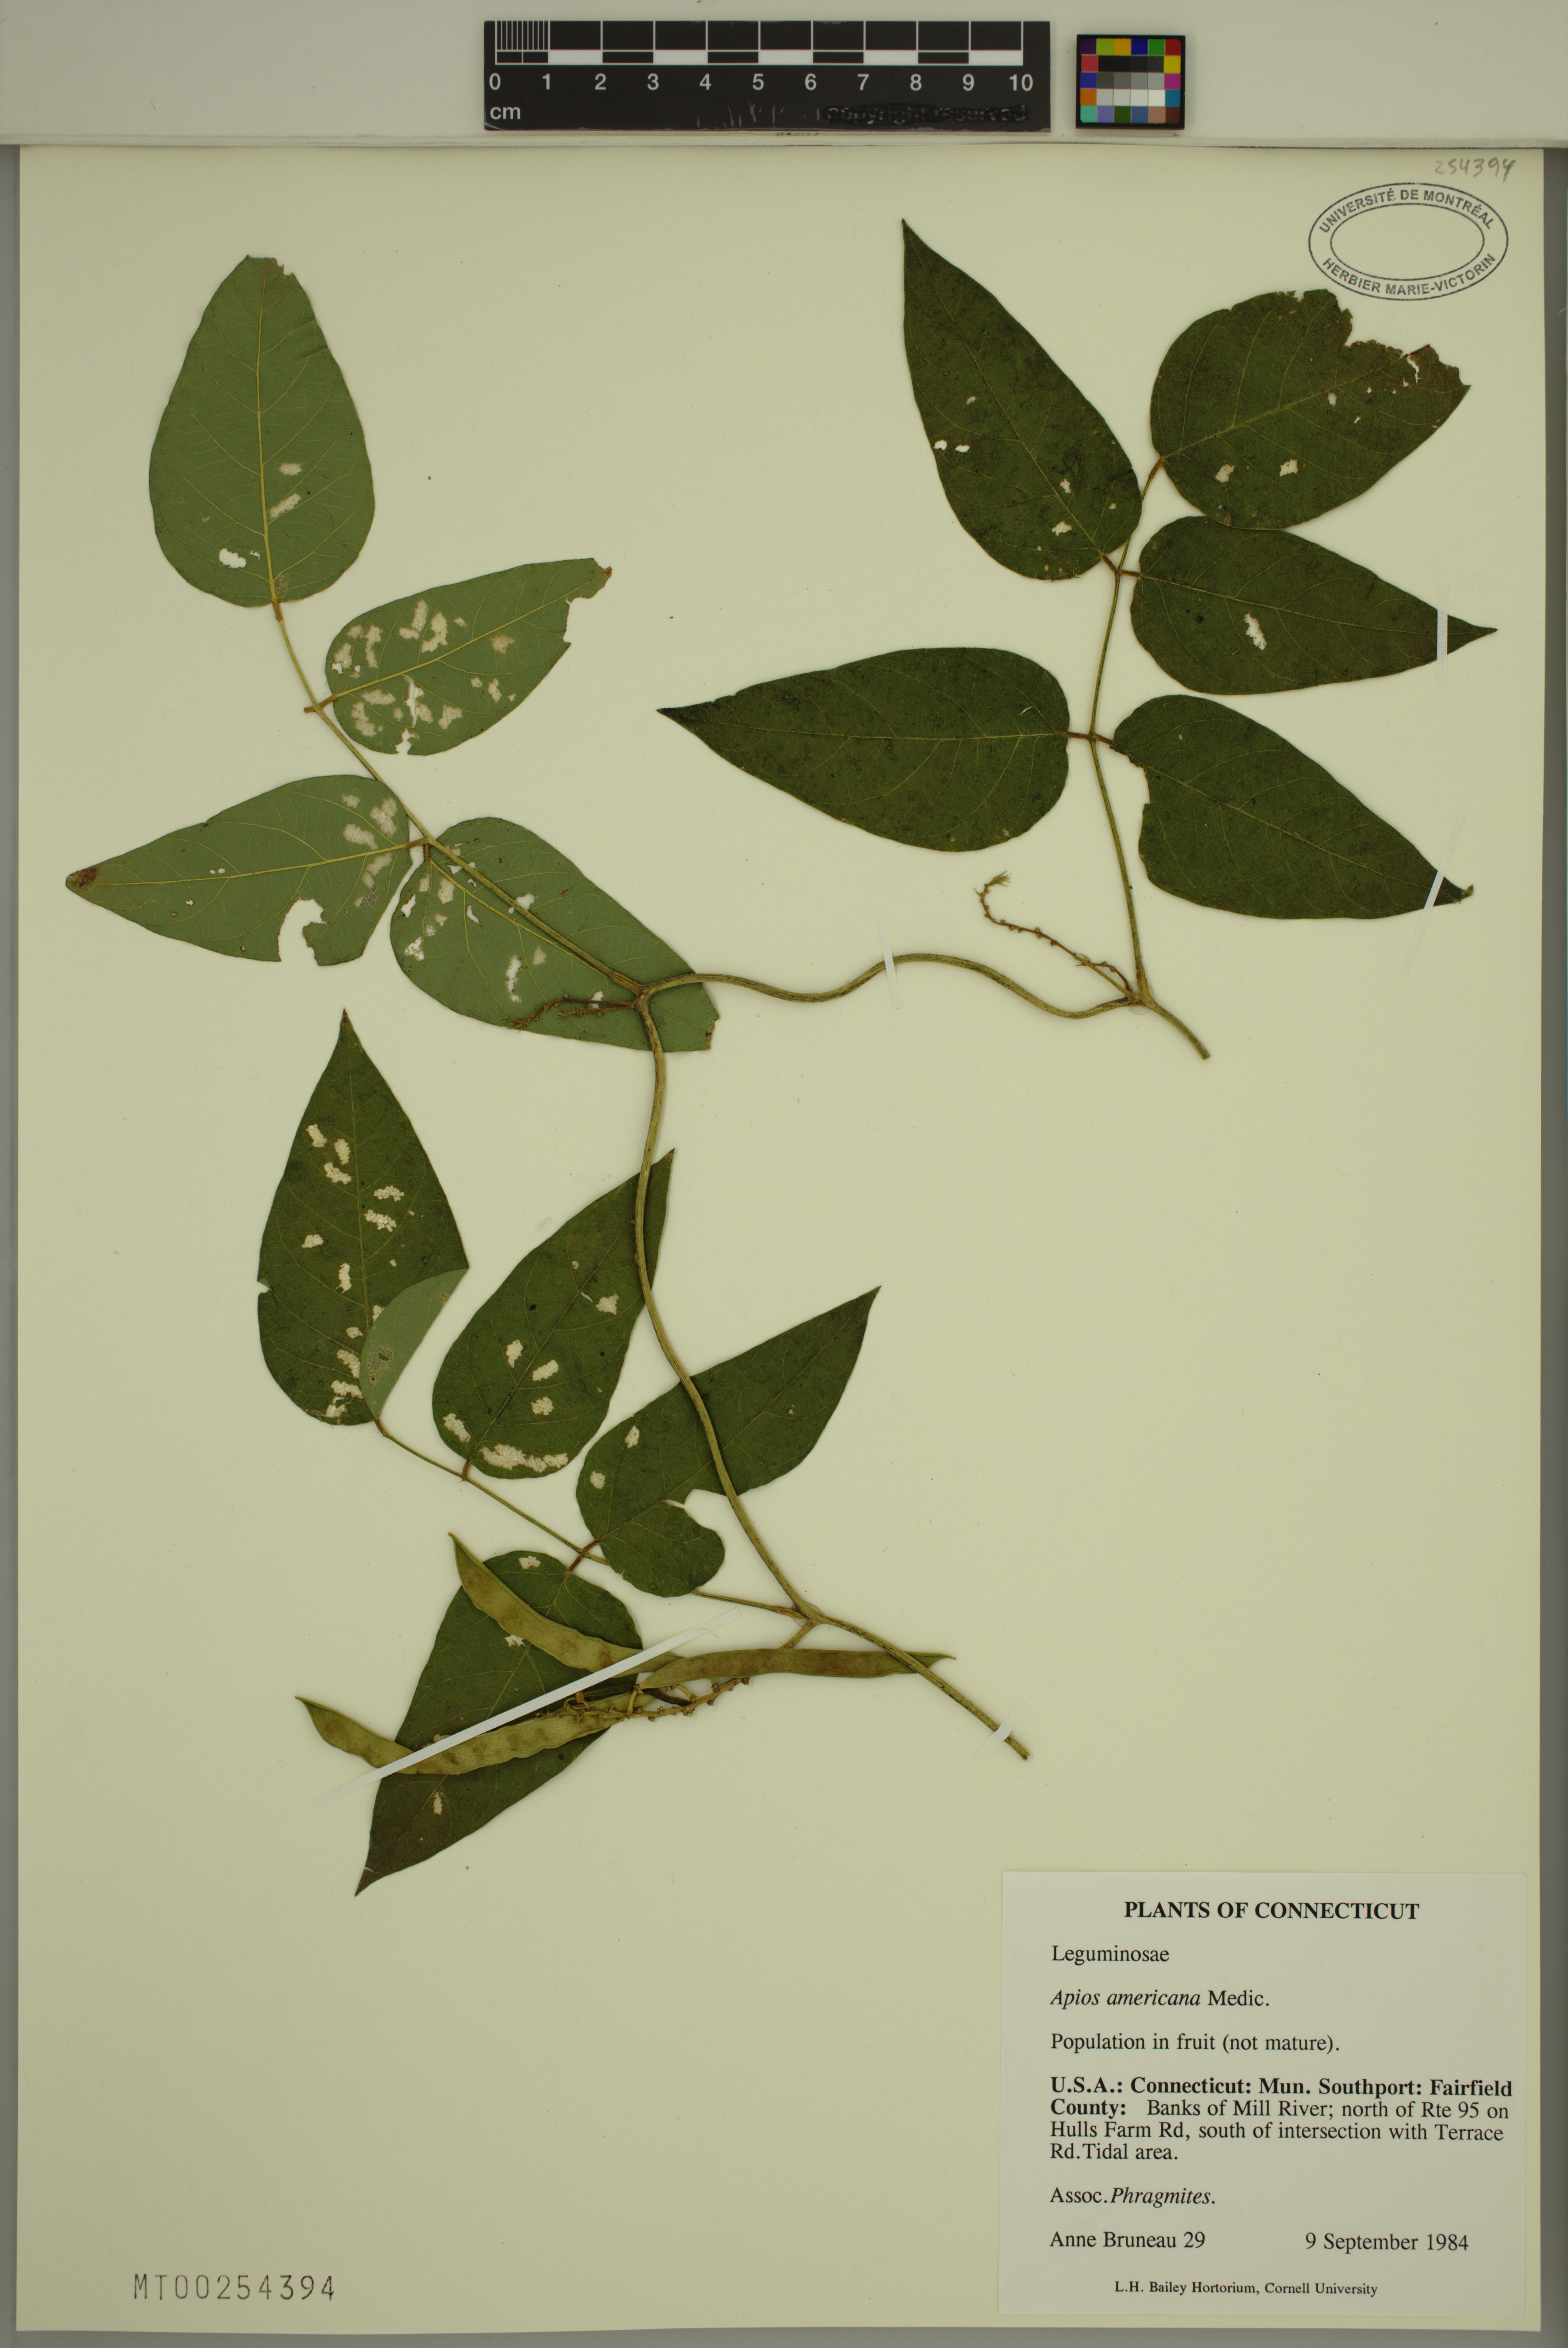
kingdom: Plantae
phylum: Tracheophyta
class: Magnoliopsida
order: Fabales
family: Fabaceae
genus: Apios
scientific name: Apios americana
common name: American potato-bean
